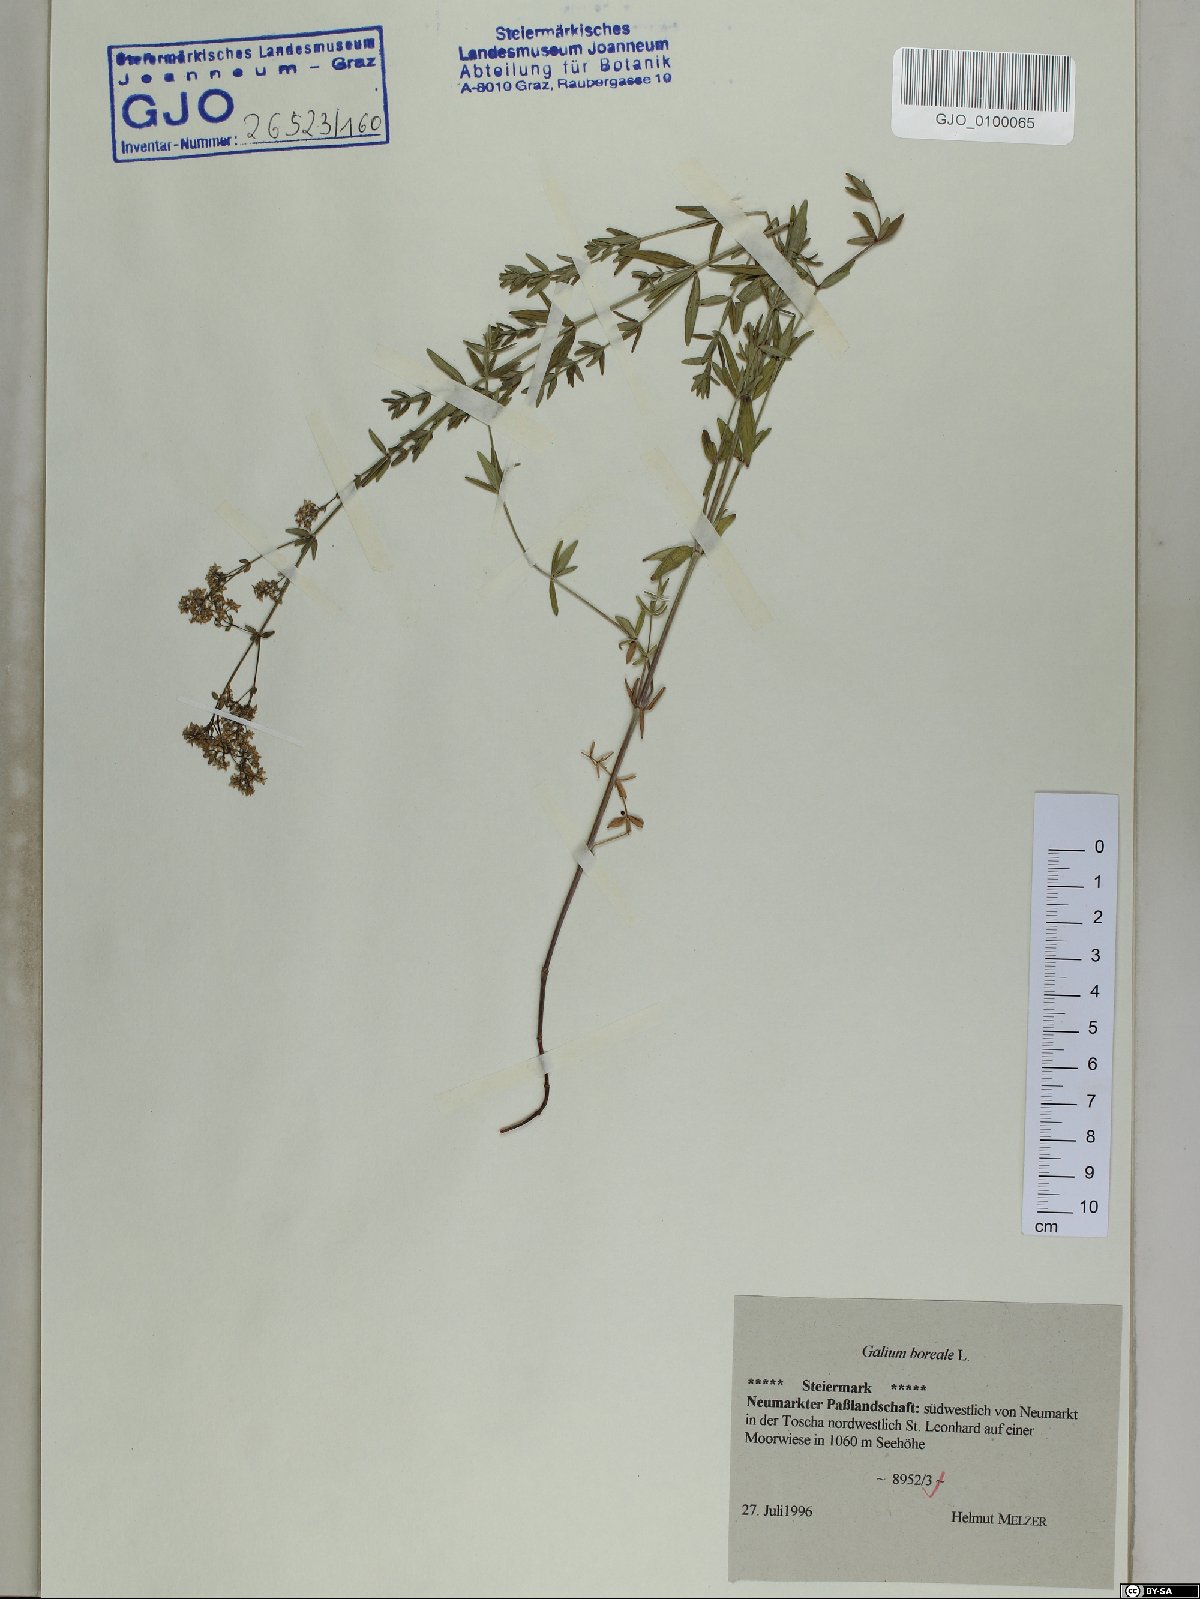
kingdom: Plantae
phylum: Tracheophyta
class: Magnoliopsida
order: Gentianales
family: Rubiaceae
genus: Galium
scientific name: Galium boreale
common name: Northern bedstraw
